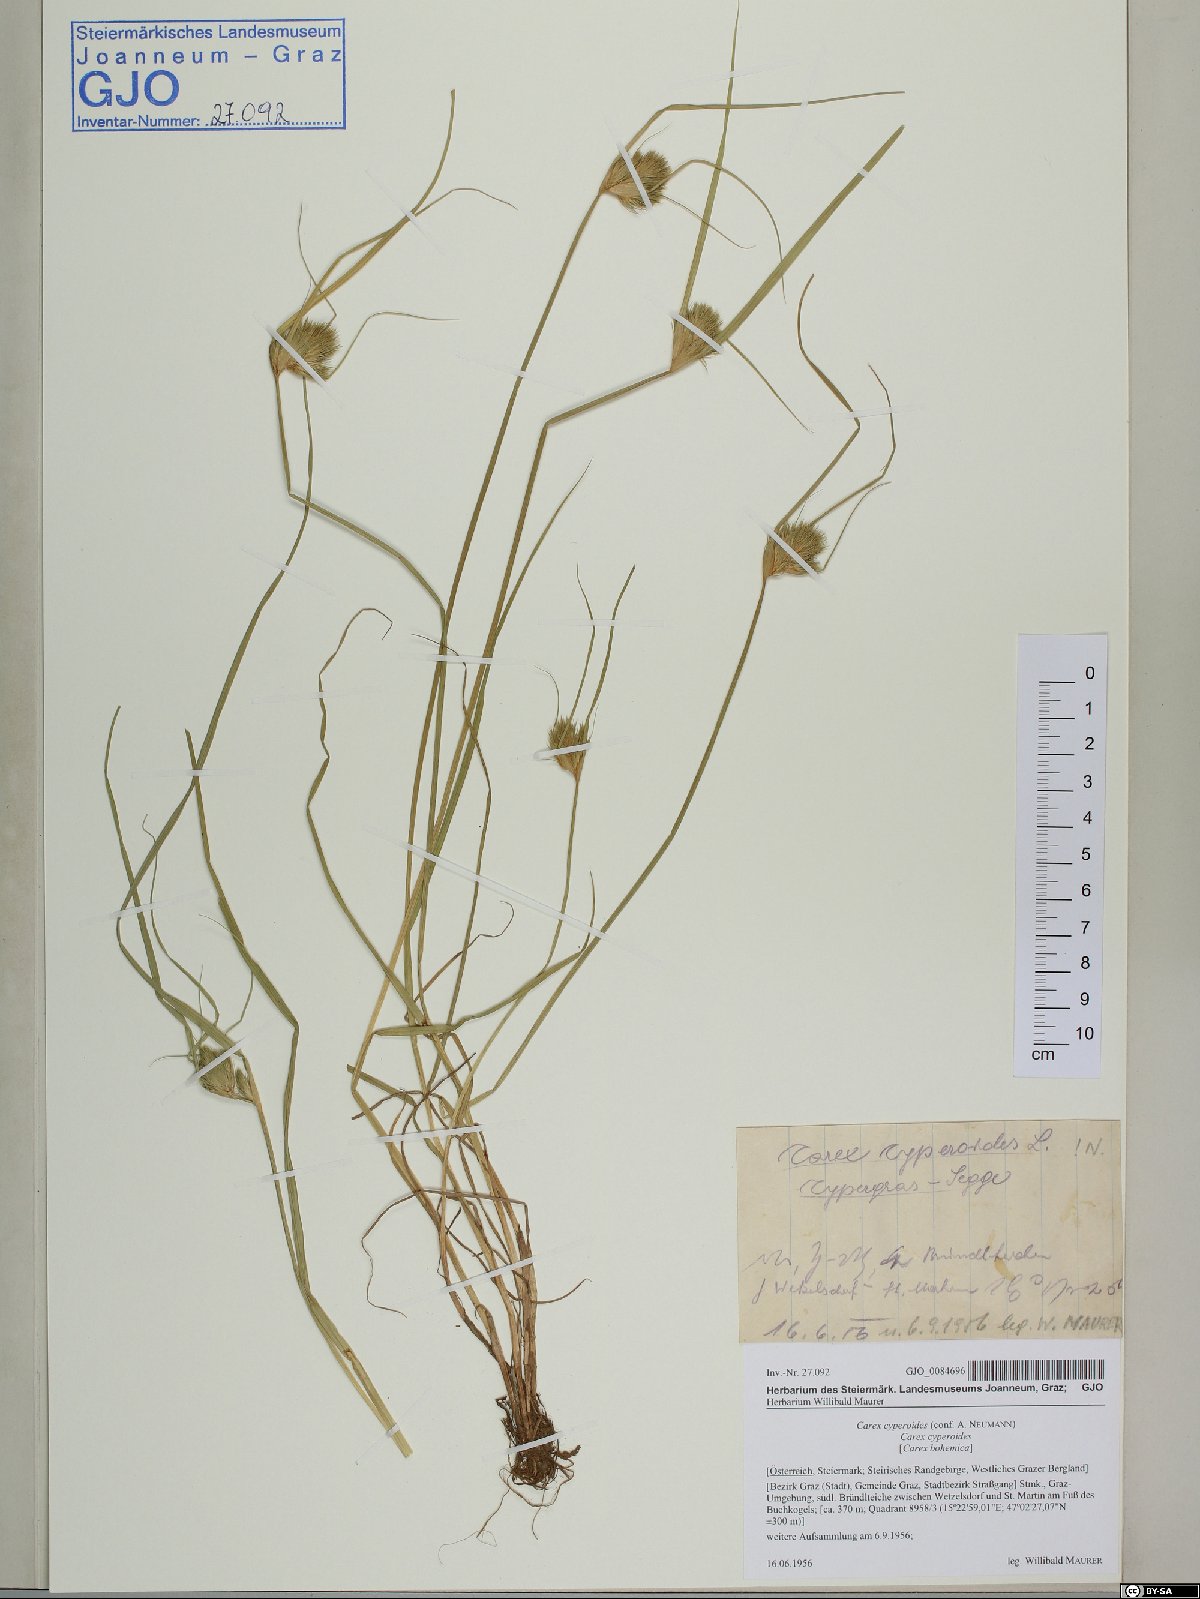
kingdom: Plantae
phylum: Tracheophyta
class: Liliopsida
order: Poales
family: Cyperaceae
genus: Carex
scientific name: Carex bohemica
